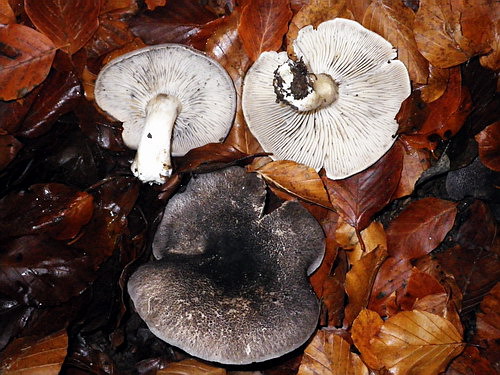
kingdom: Fungi
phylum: Basidiomycota
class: Agaricomycetes
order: Agaricales
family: Tricholomataceae
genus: Tricholoma
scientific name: Tricholoma orirubens
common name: rødbladet ridderhat
